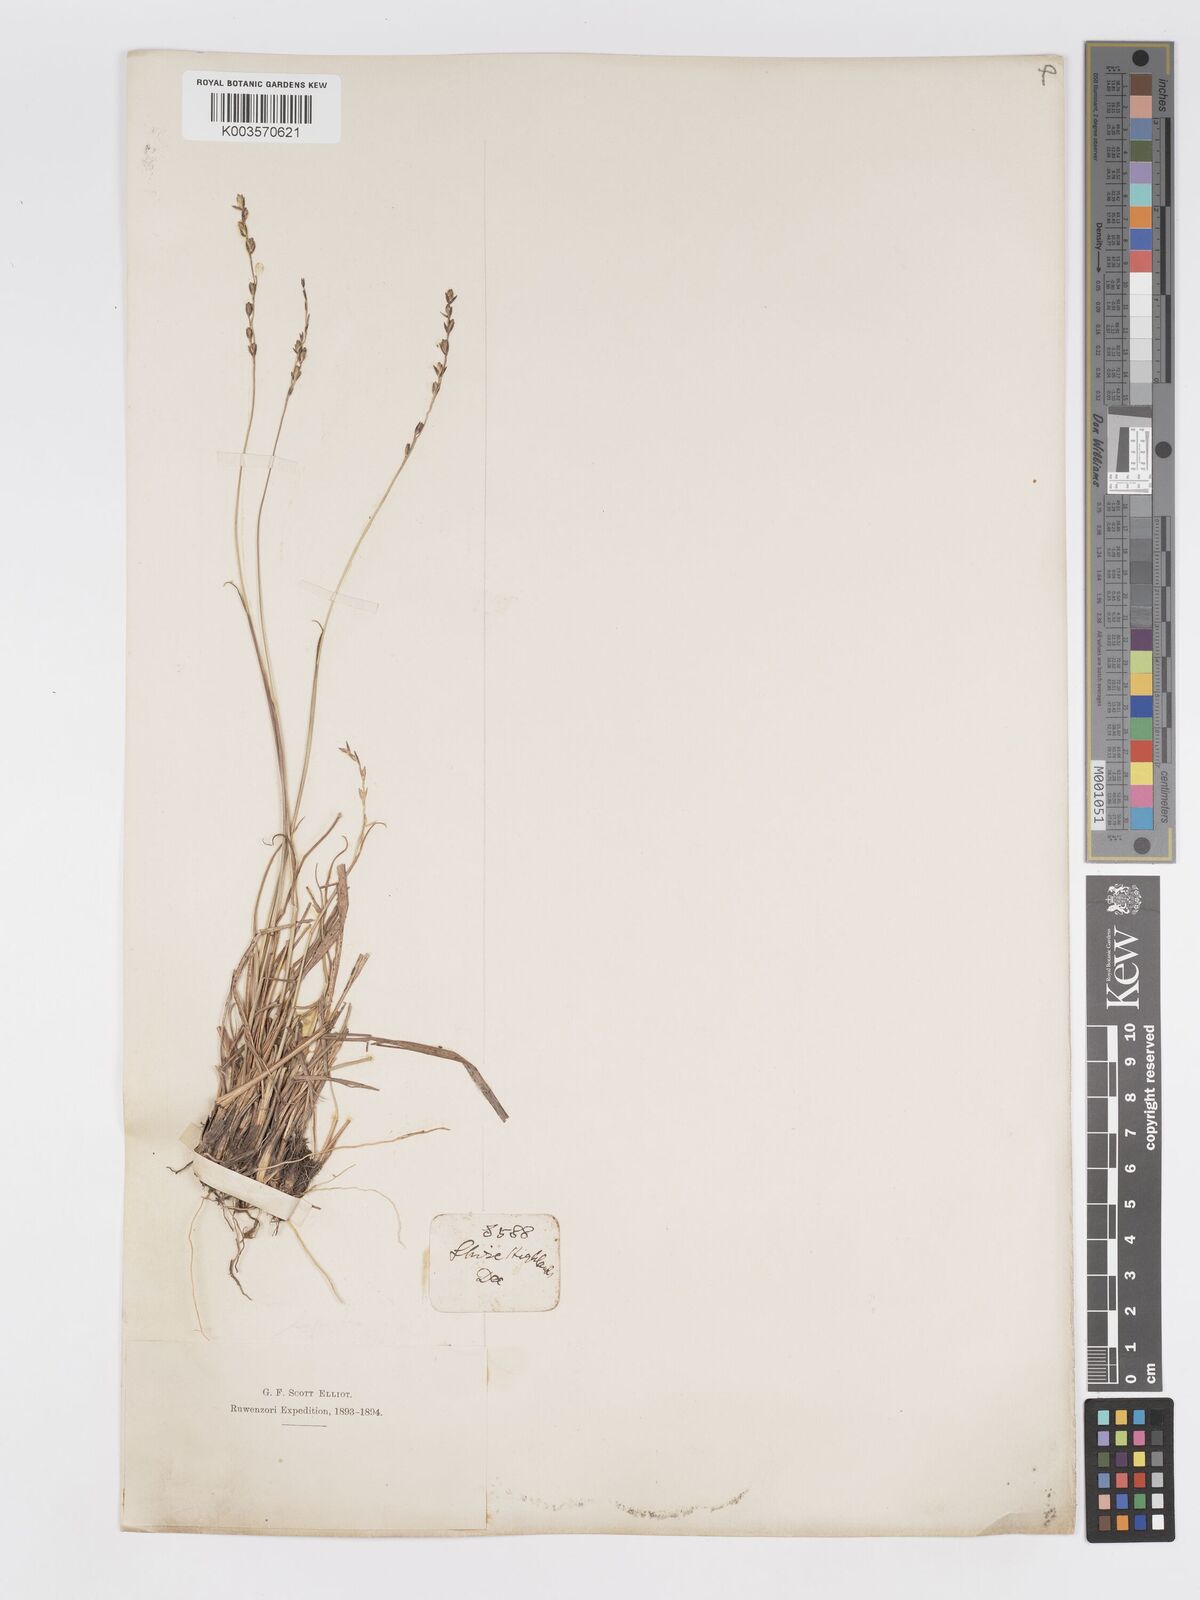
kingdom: Plantae
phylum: Tracheophyta
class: Liliopsida
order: Poales
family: Poaceae
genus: Eragrostis
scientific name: Eragrostis capensis
